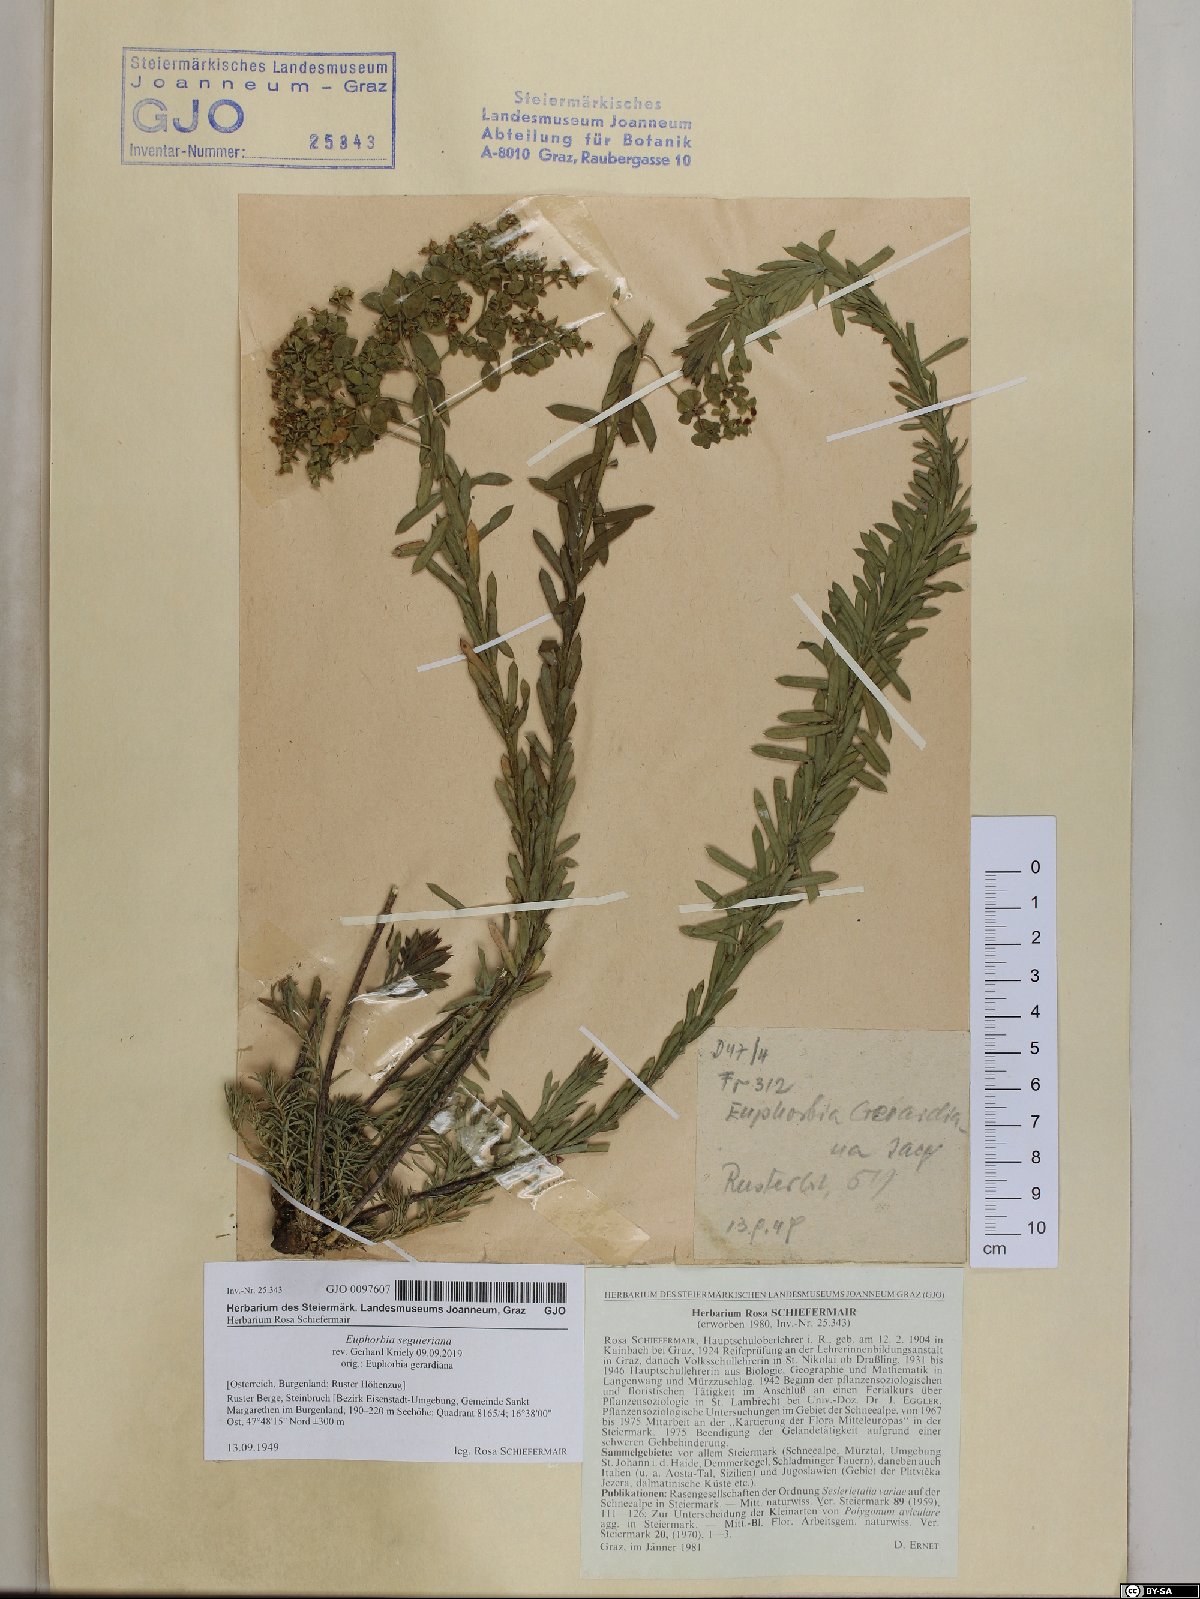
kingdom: Plantae
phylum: Tracheophyta
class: Magnoliopsida
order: Malpighiales
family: Euphorbiaceae
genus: Euphorbia
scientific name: Euphorbia seguieriana
